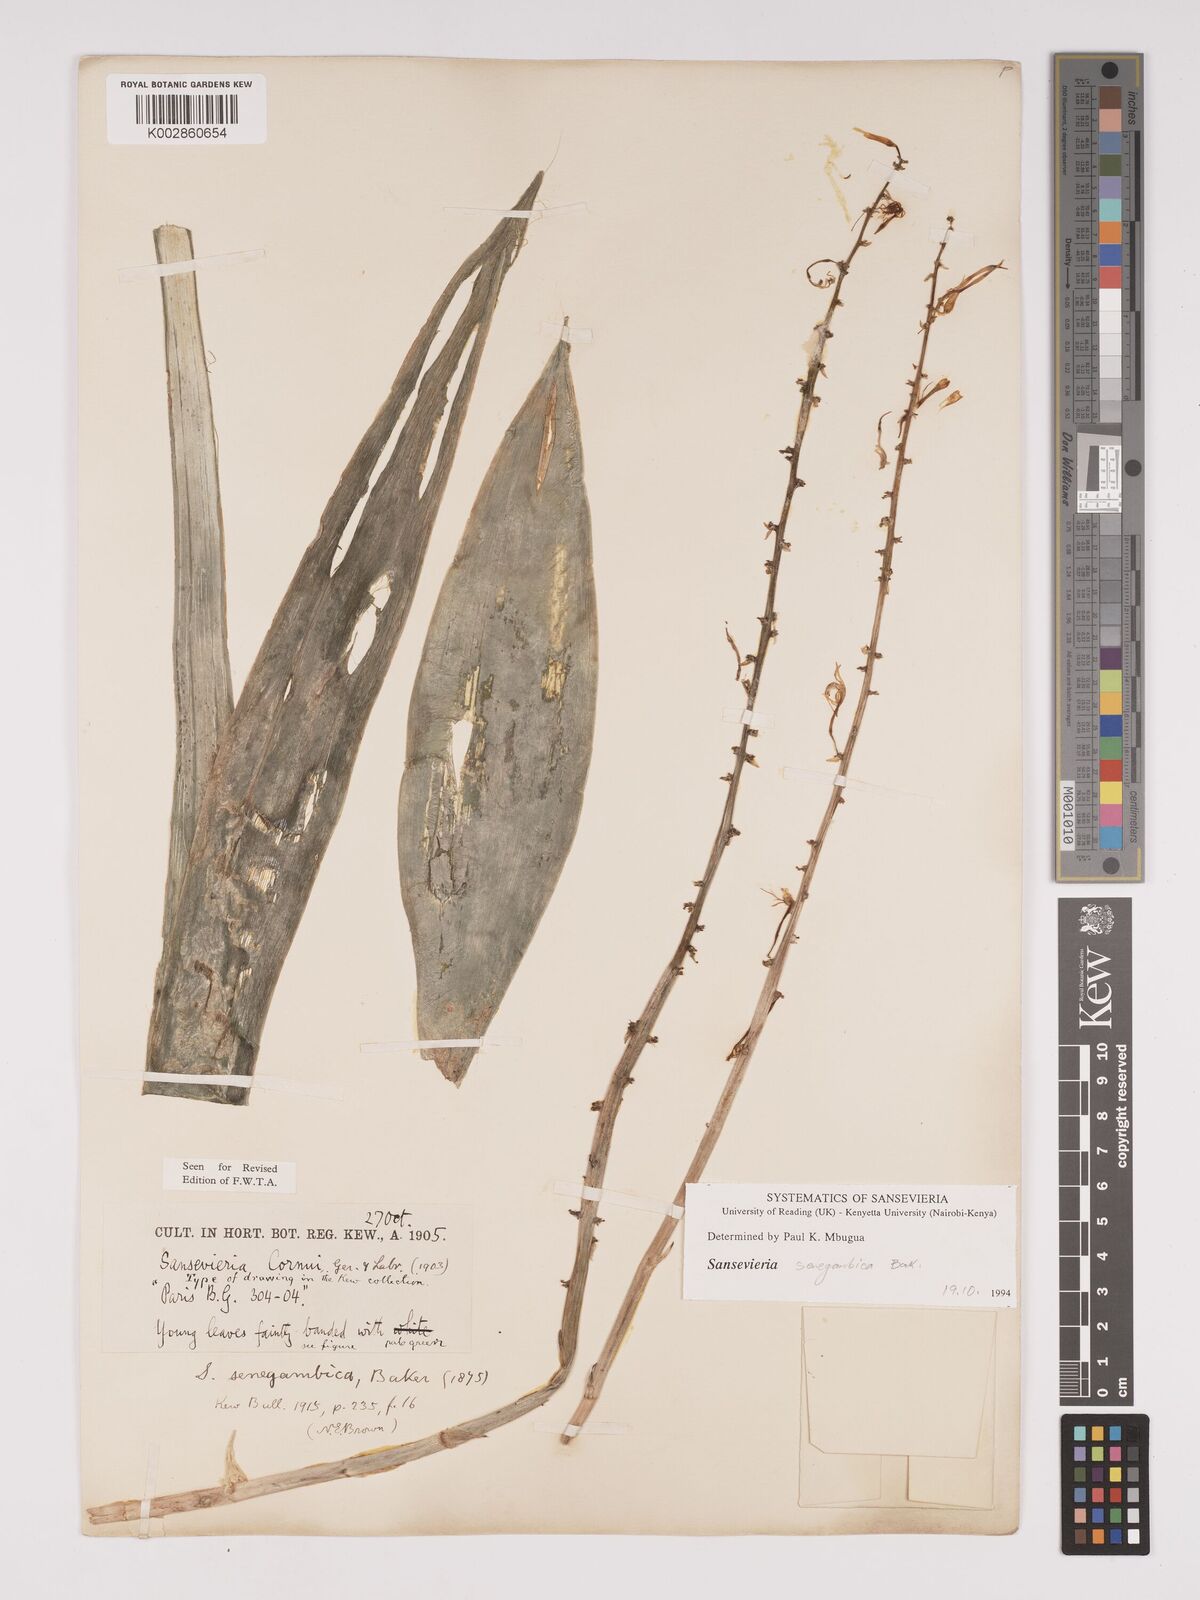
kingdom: Plantae
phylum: Tracheophyta
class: Liliopsida
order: Asparagales
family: Asparagaceae
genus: Dracaena
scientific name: Dracaena senegambica
